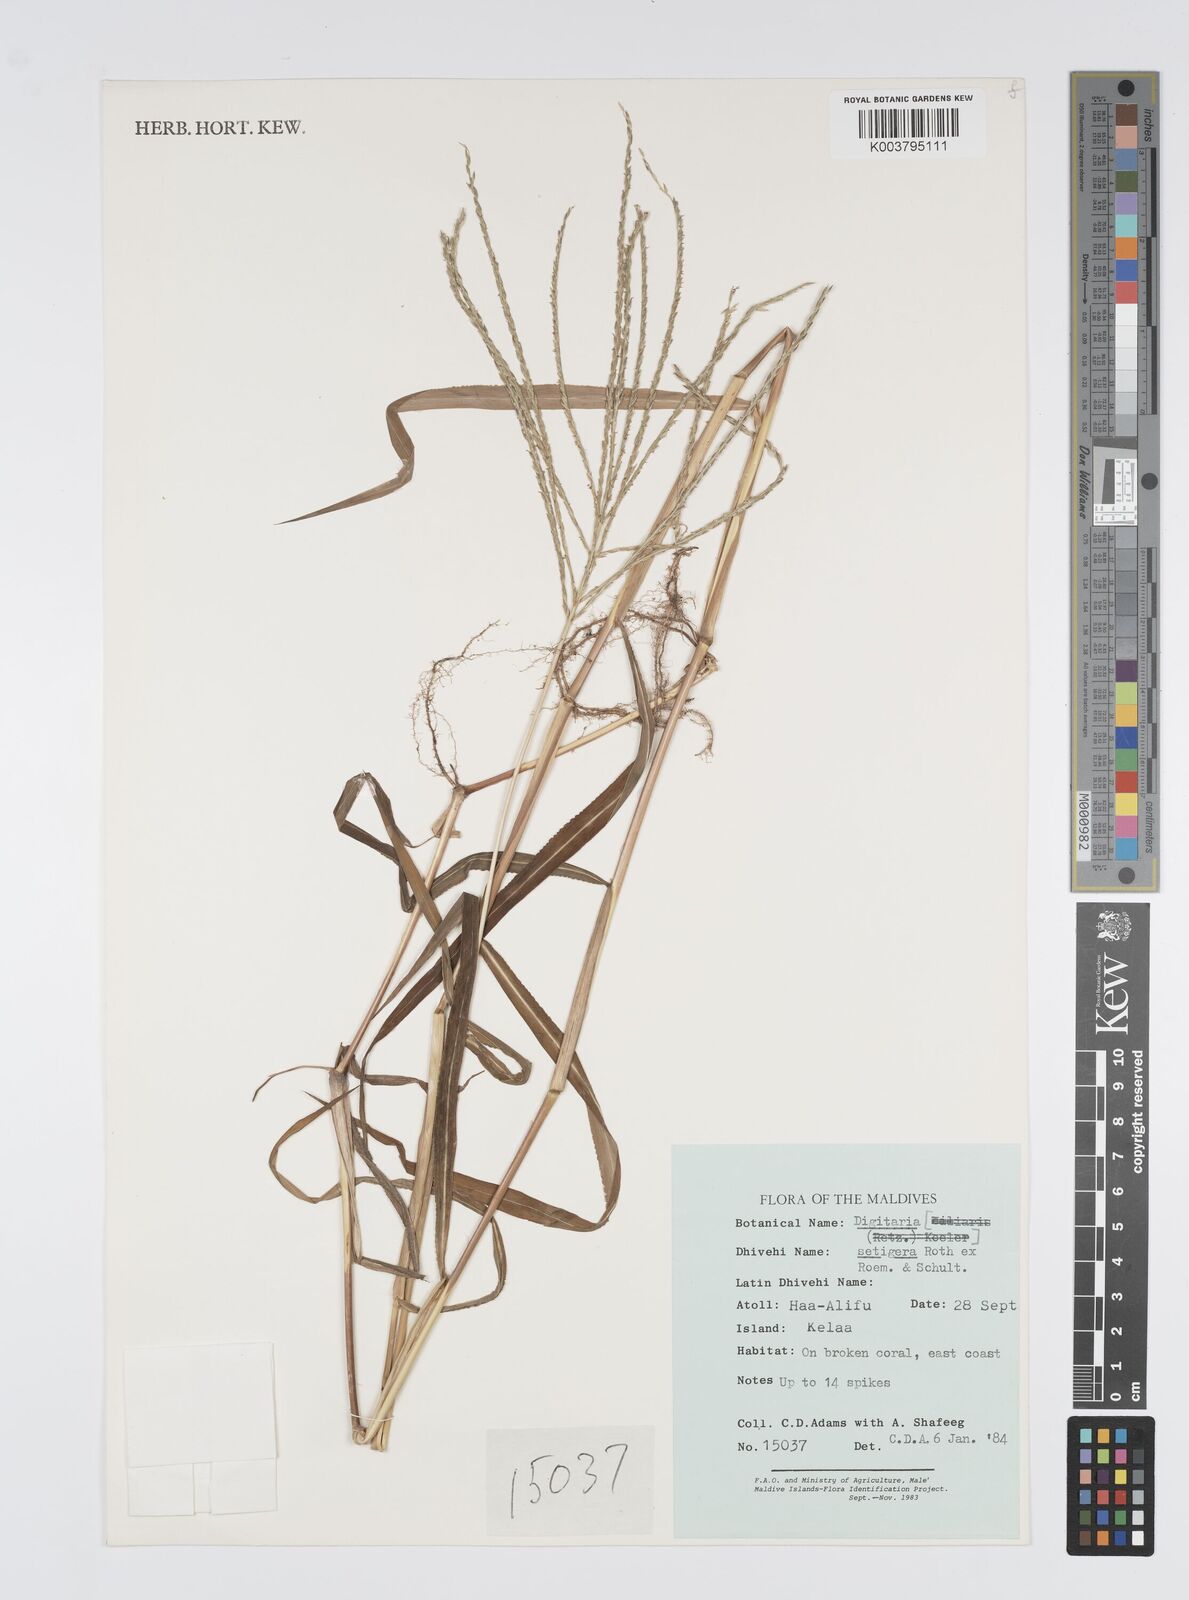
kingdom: Plantae
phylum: Tracheophyta
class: Liliopsida
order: Poales
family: Poaceae
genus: Digitaria
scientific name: Digitaria setigera
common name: East indian crabgrass
